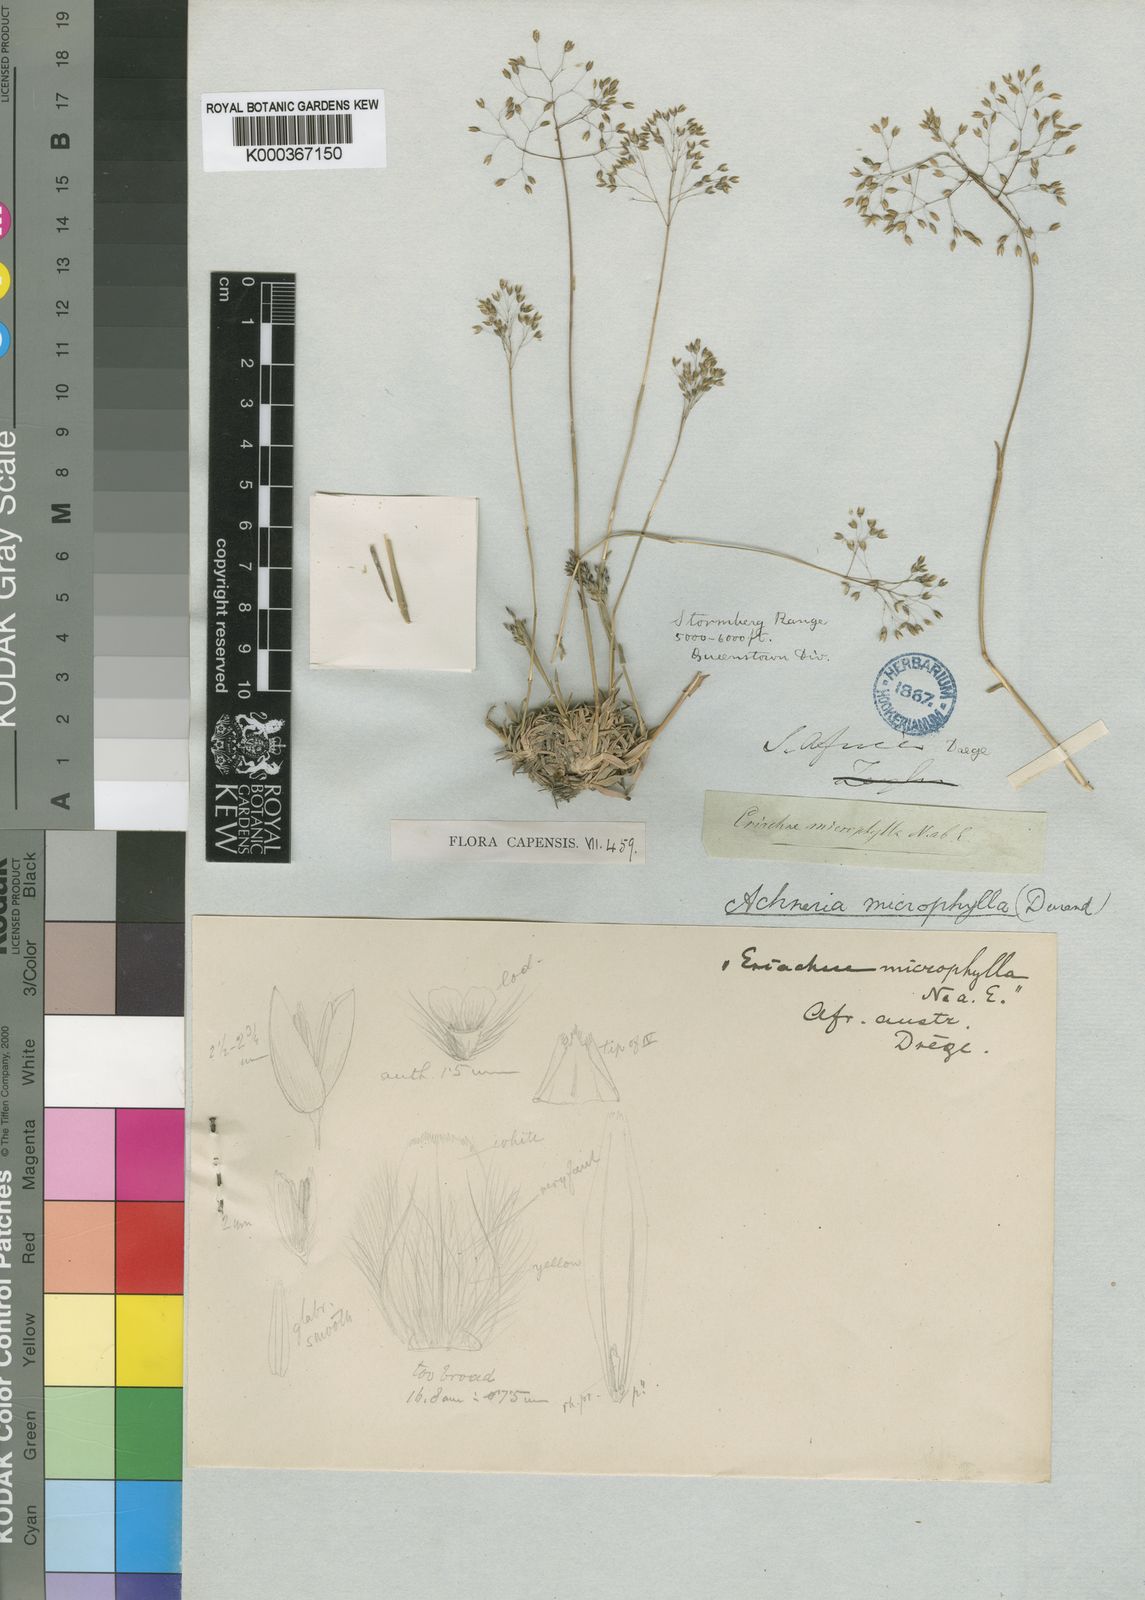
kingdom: Plantae
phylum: Tracheophyta
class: Liliopsida
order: Poales
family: Poaceae
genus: Pentameris
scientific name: Pentameris microphylla
